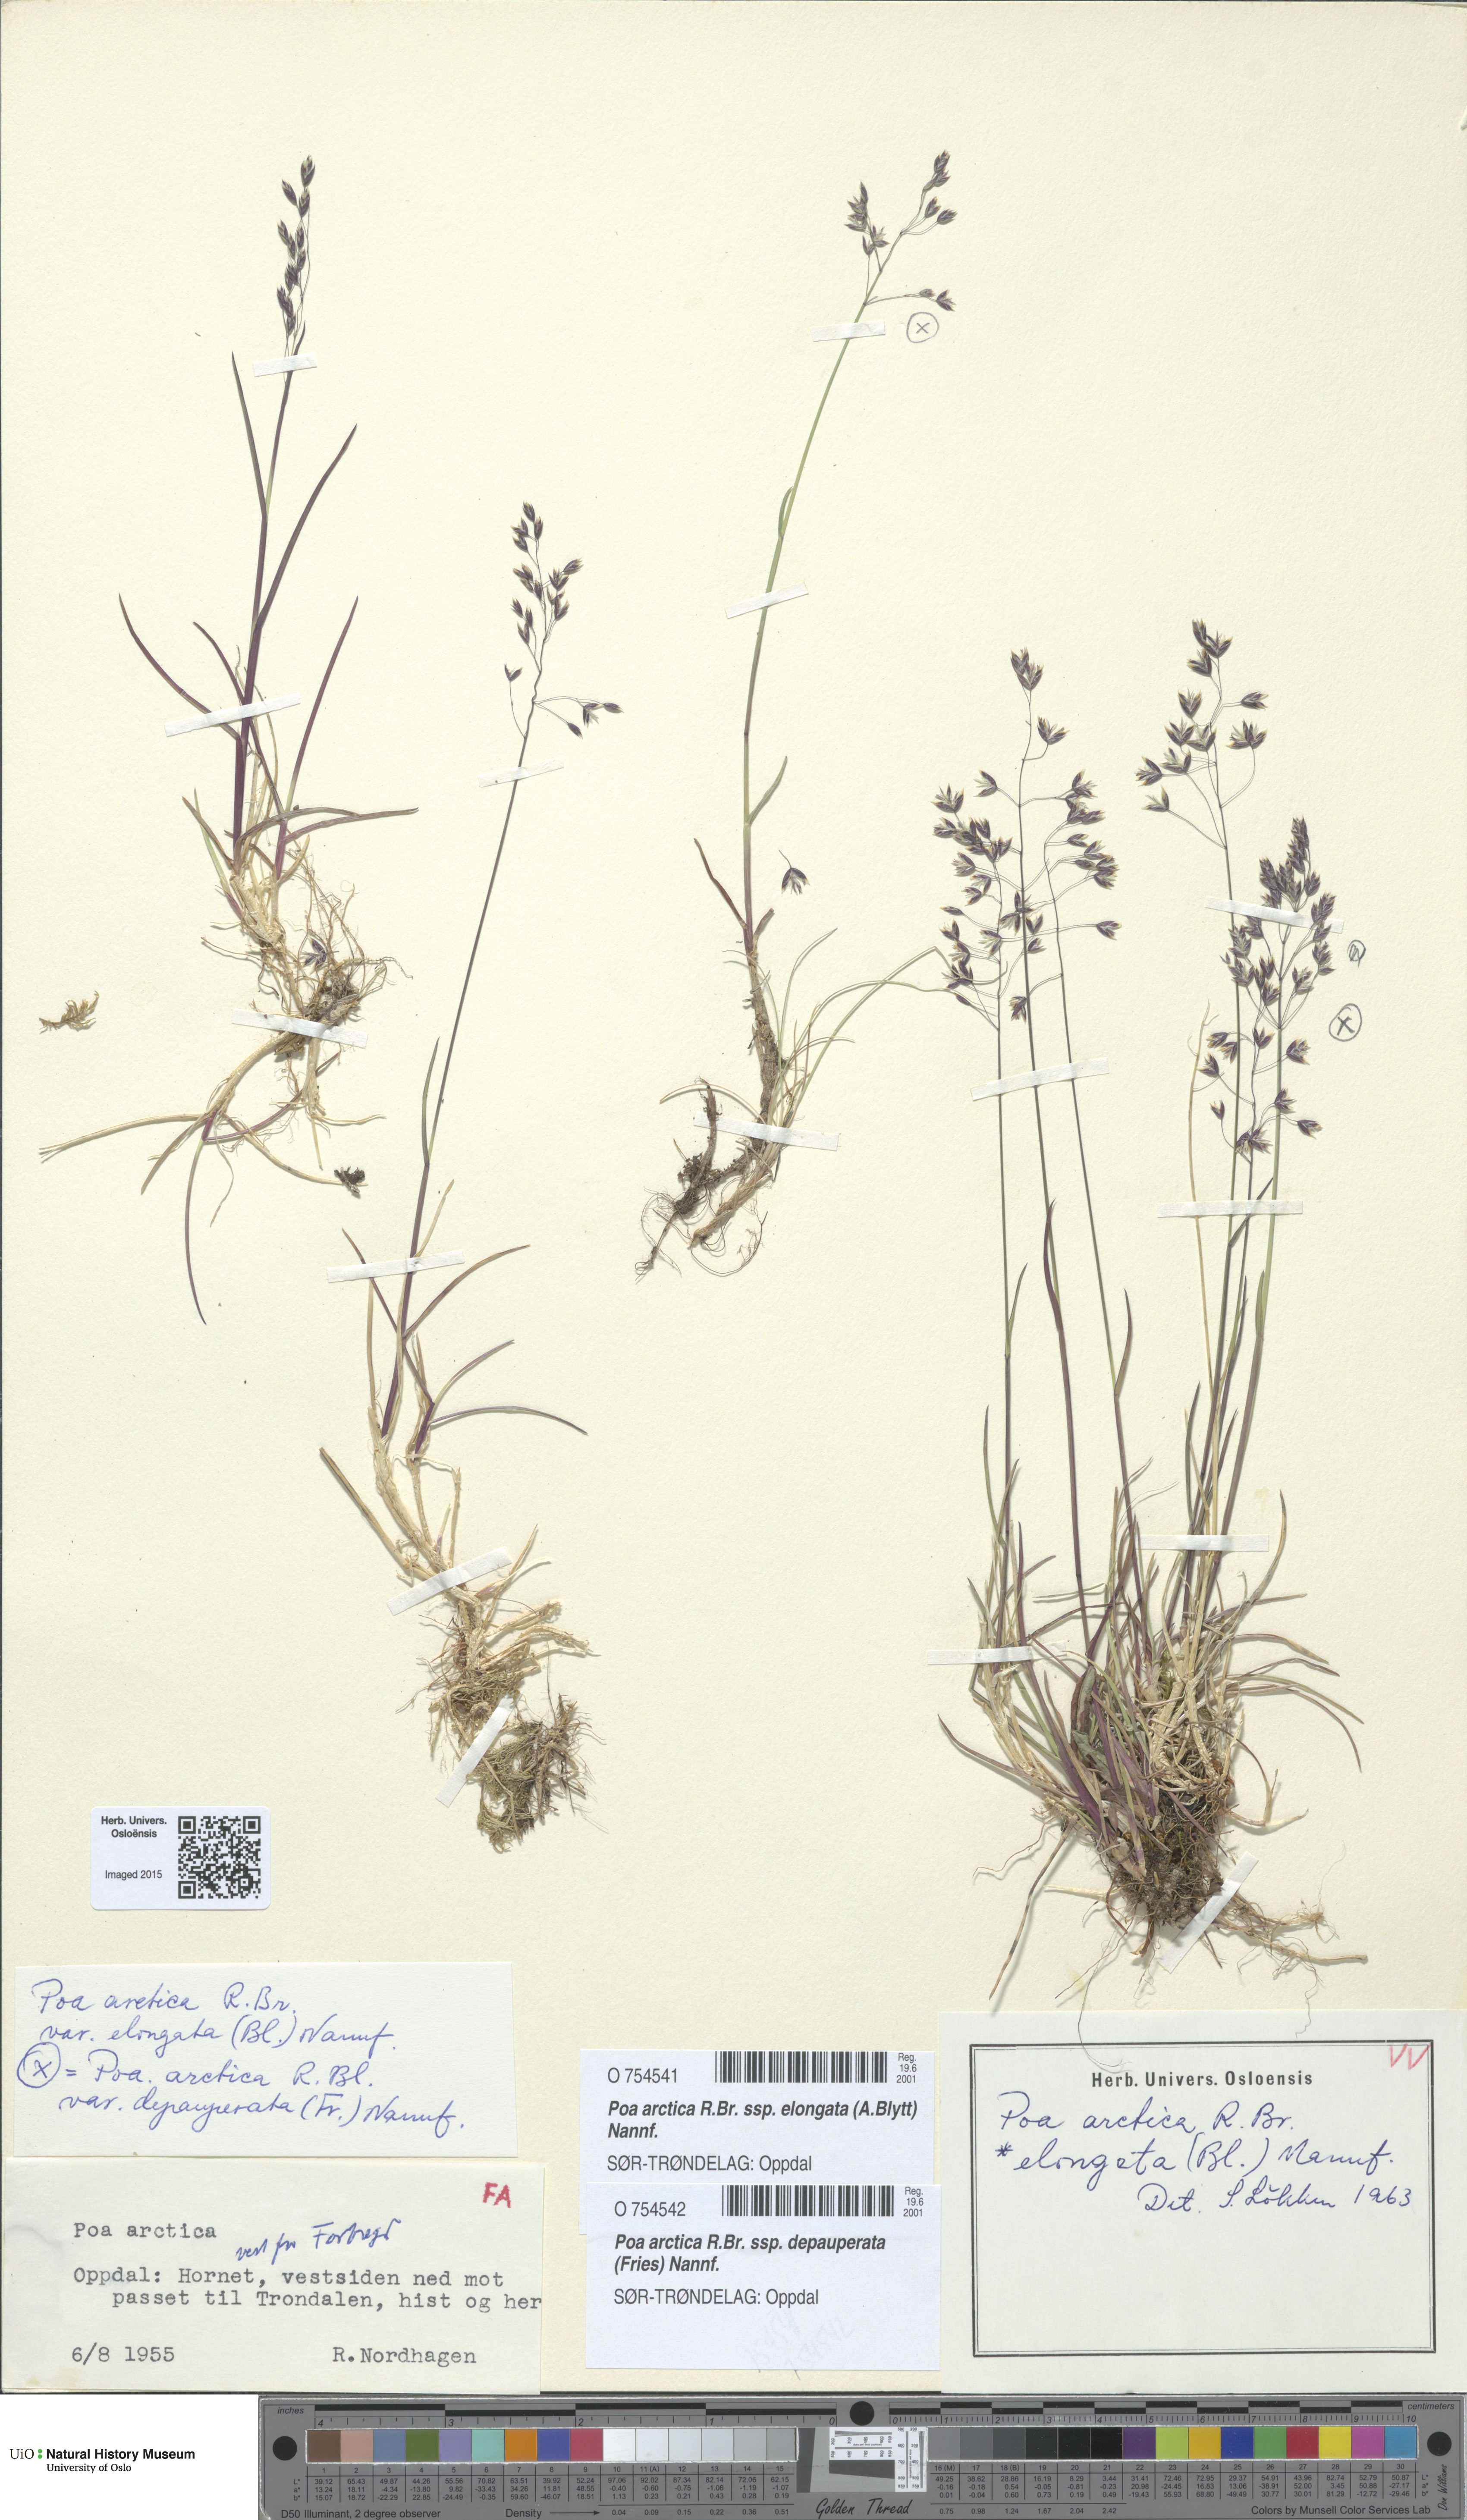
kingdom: Plantae
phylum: Tracheophyta
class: Liliopsida
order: Poales
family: Poaceae
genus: Poa
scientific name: Poa arctica
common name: Arctic bluegrass
